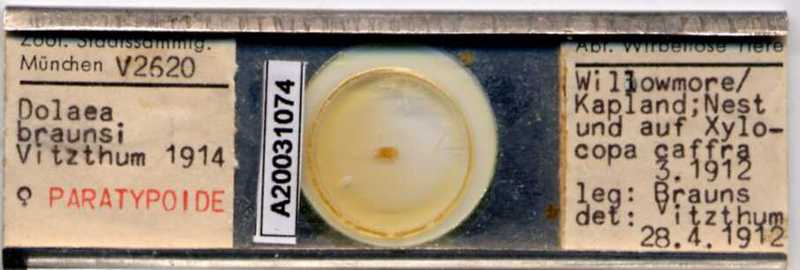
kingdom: Animalia
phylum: Arthropoda
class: Arachnida
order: Mesostigmata
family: Laelapidae
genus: Dinogamasus
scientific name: Dinogamasus
